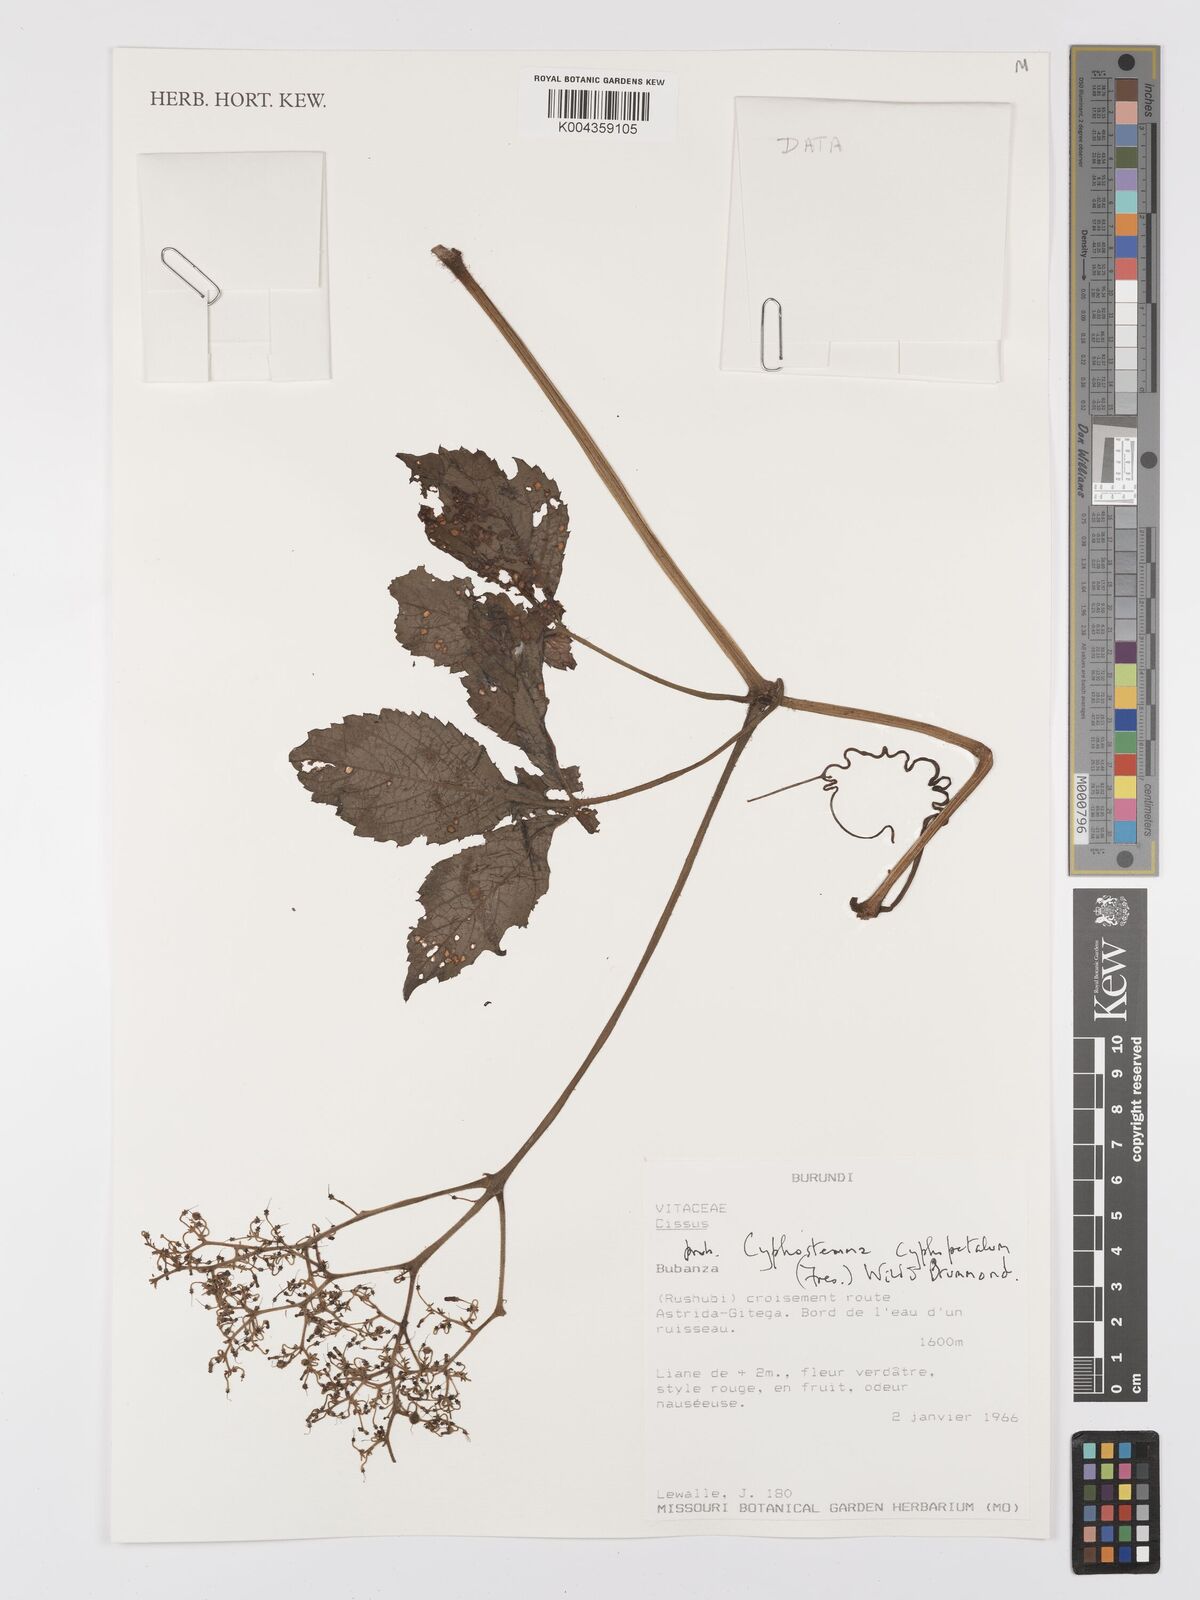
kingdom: Plantae
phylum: Tracheophyta
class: Magnoliopsida
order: Vitales
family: Vitaceae
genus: Cyphostemma
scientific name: Cyphostemma cyphopetalum
